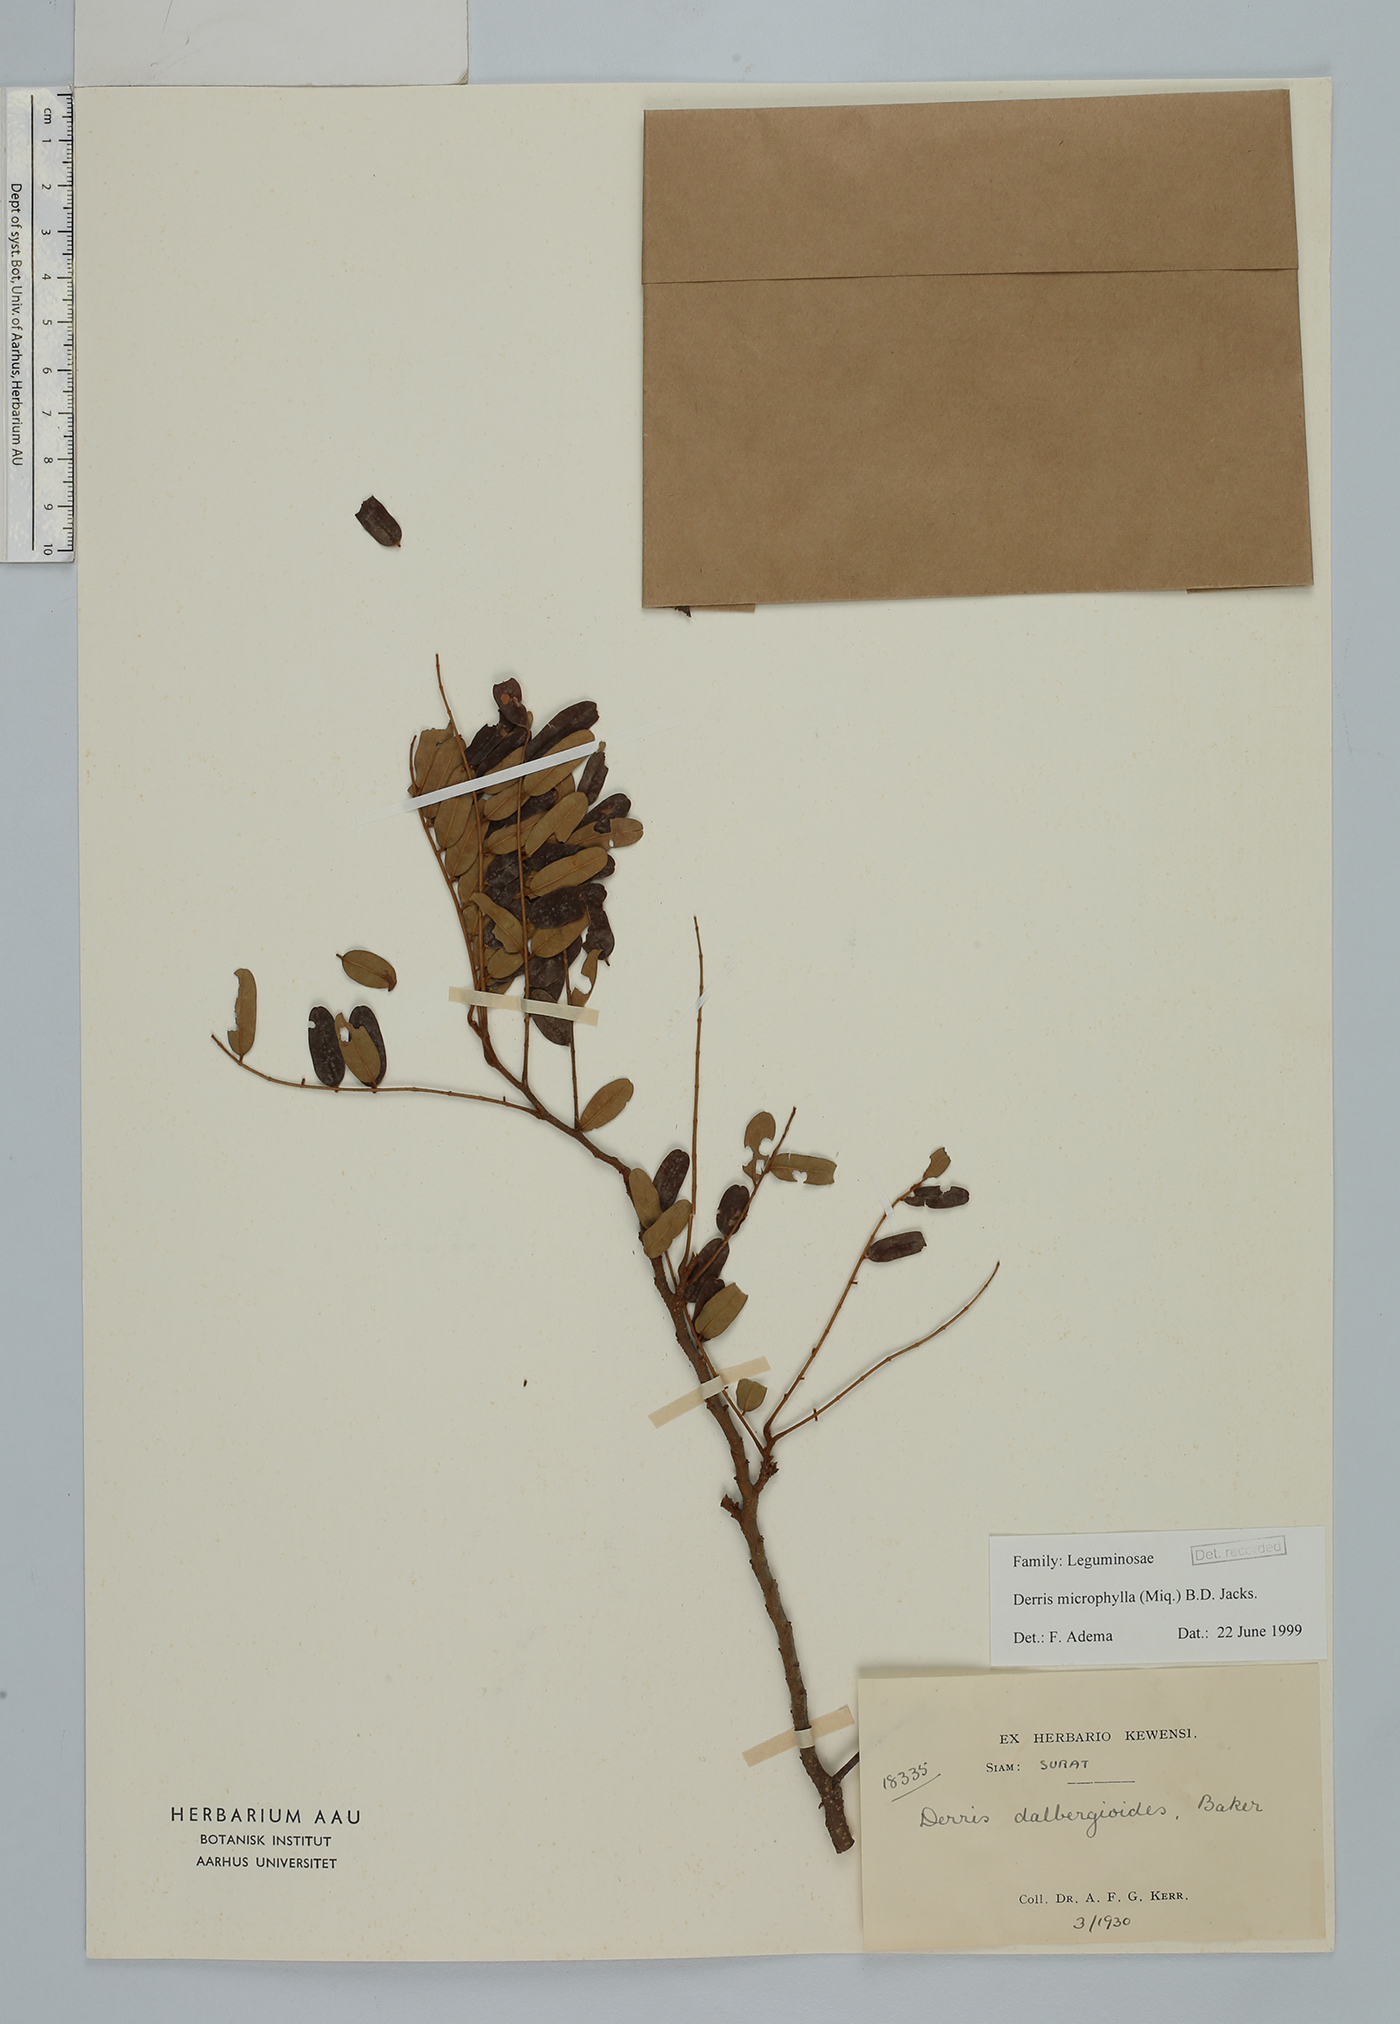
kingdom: Plantae
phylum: Tracheophyta
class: Magnoliopsida
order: Fabales
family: Fabaceae
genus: Brachypterum
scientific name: Brachypterum microphyllum
